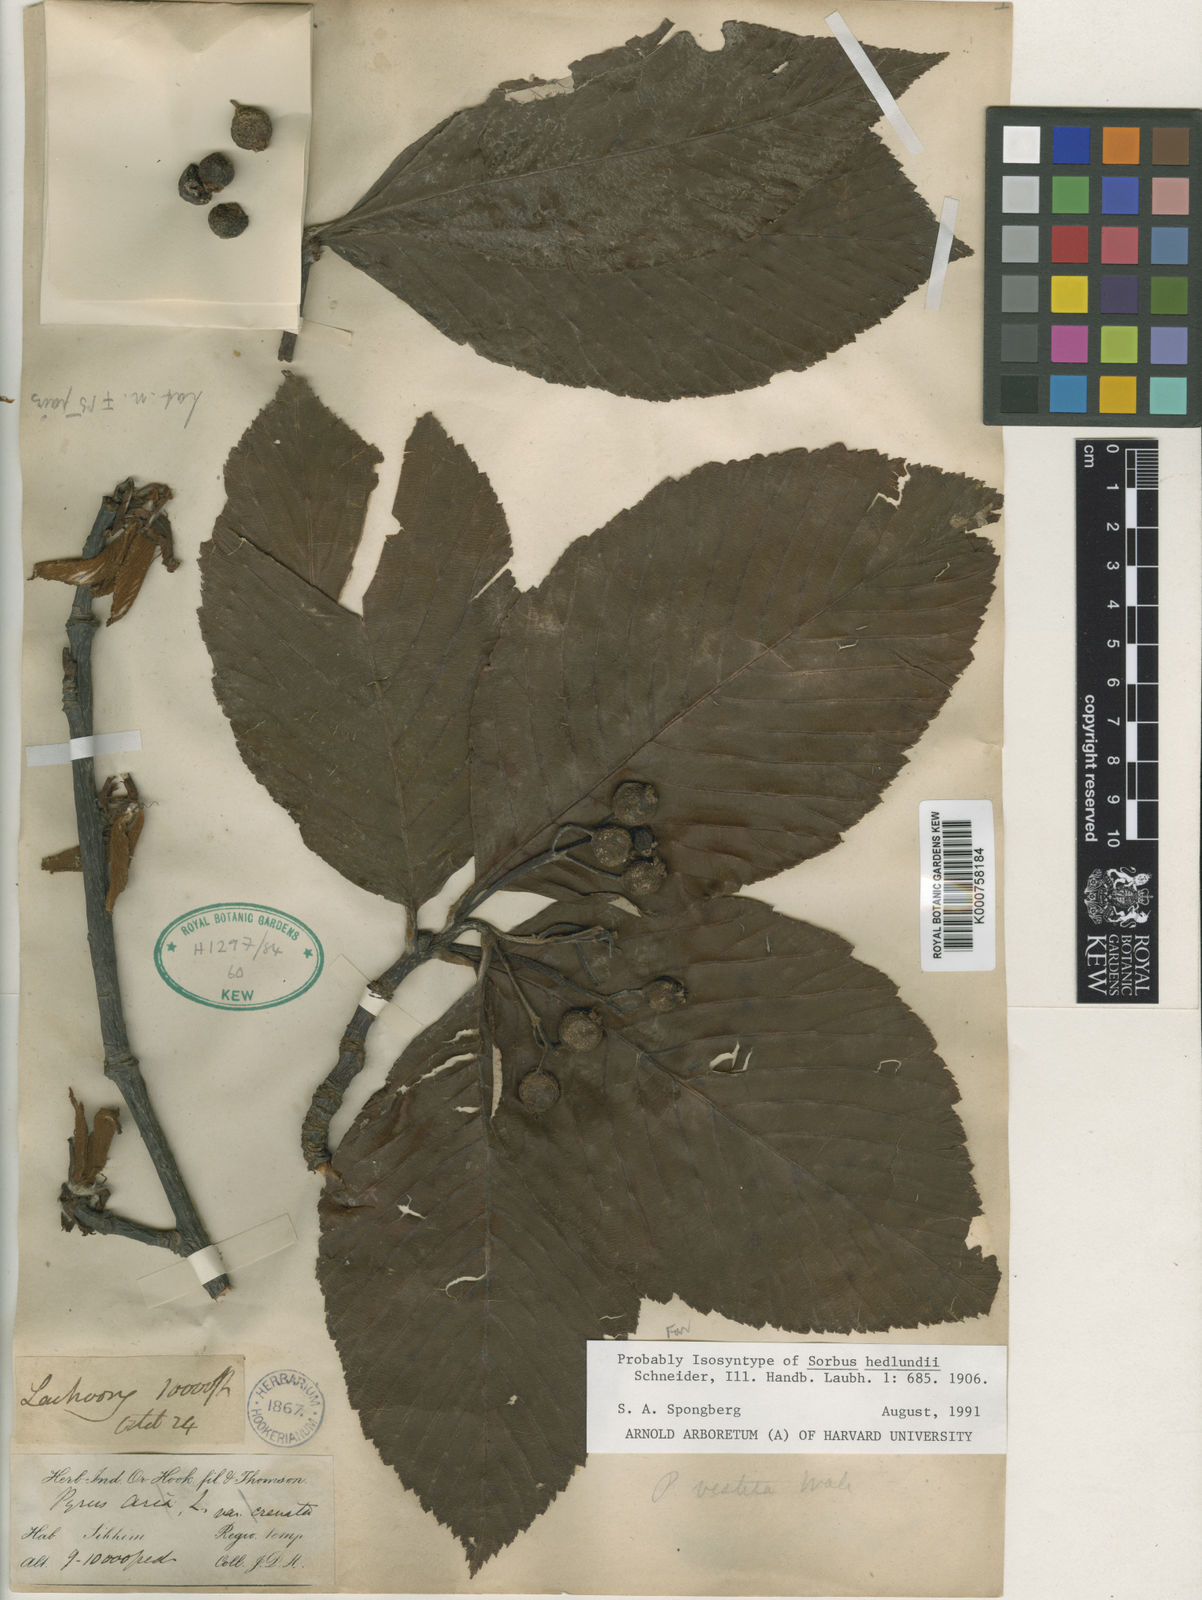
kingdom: Plantae
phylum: Tracheophyta
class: Magnoliopsida
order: Rosales
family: Rosaceae
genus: Sorbus
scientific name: Sorbus hedlundii
